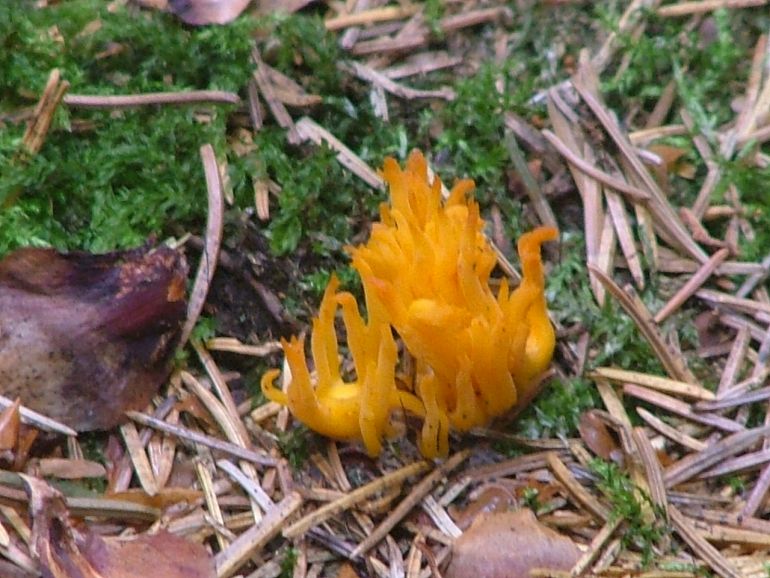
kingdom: Fungi
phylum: Basidiomycota
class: Dacrymycetes
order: Dacrymycetales
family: Dacrymycetaceae
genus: Calocera
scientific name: Calocera viscosa
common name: almindelig guldgaffel
